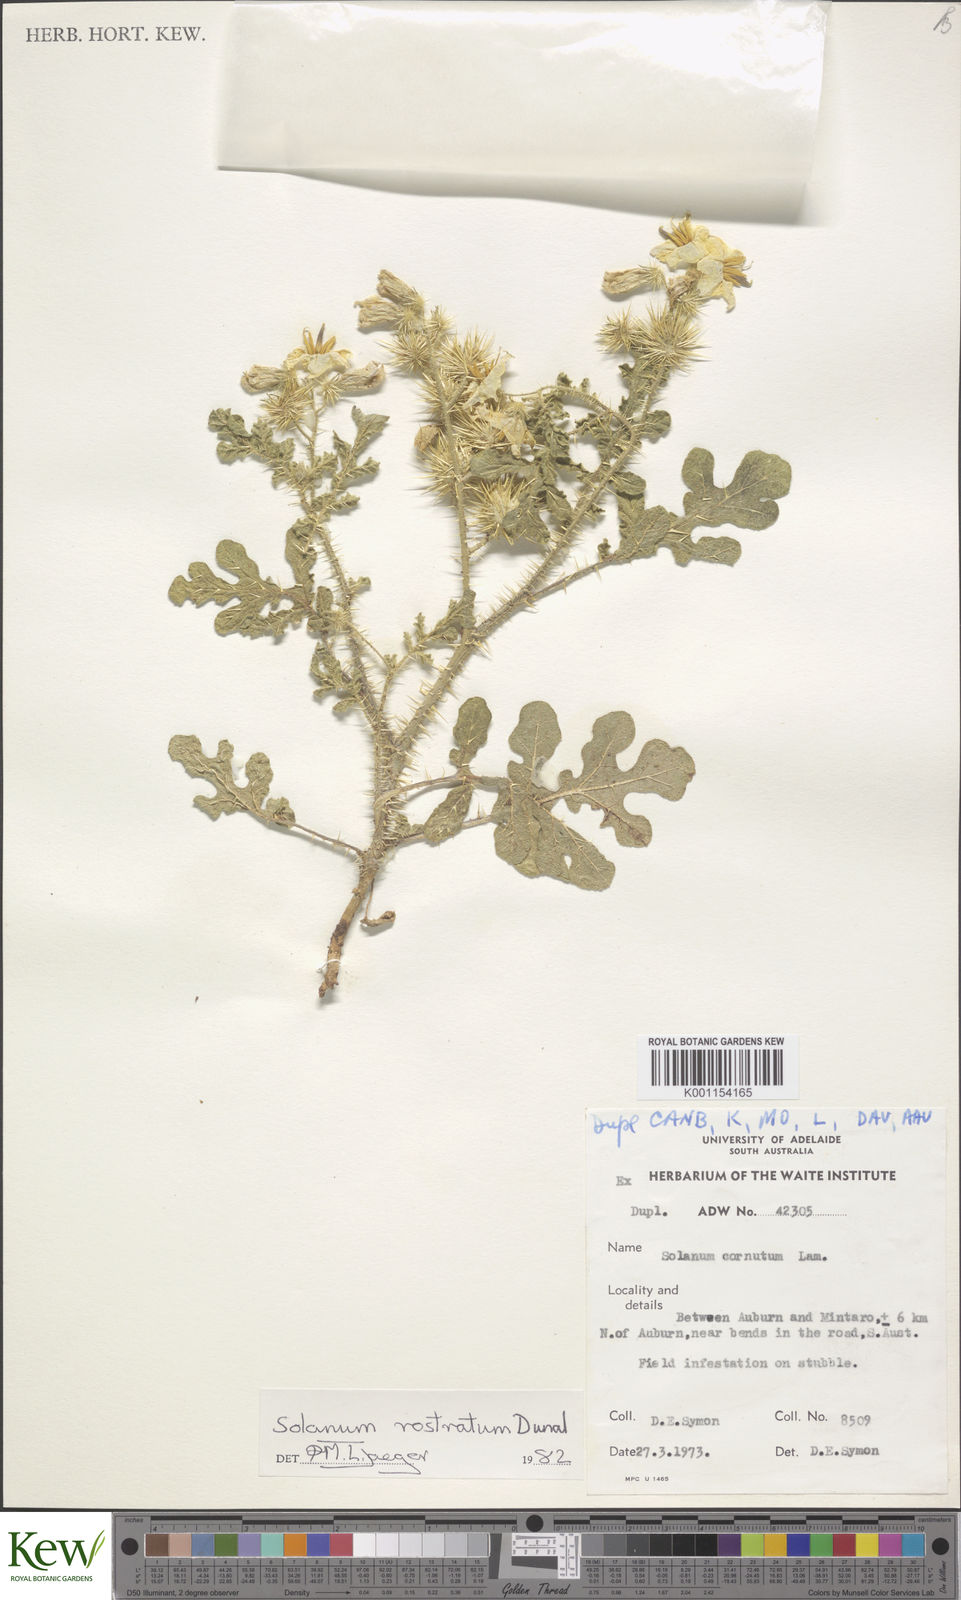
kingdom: Plantae
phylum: Tracheophyta
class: Magnoliopsida
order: Solanales
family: Solanaceae
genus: Solanum
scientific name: Solanum angustifolium
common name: Buffalobur nightshade
